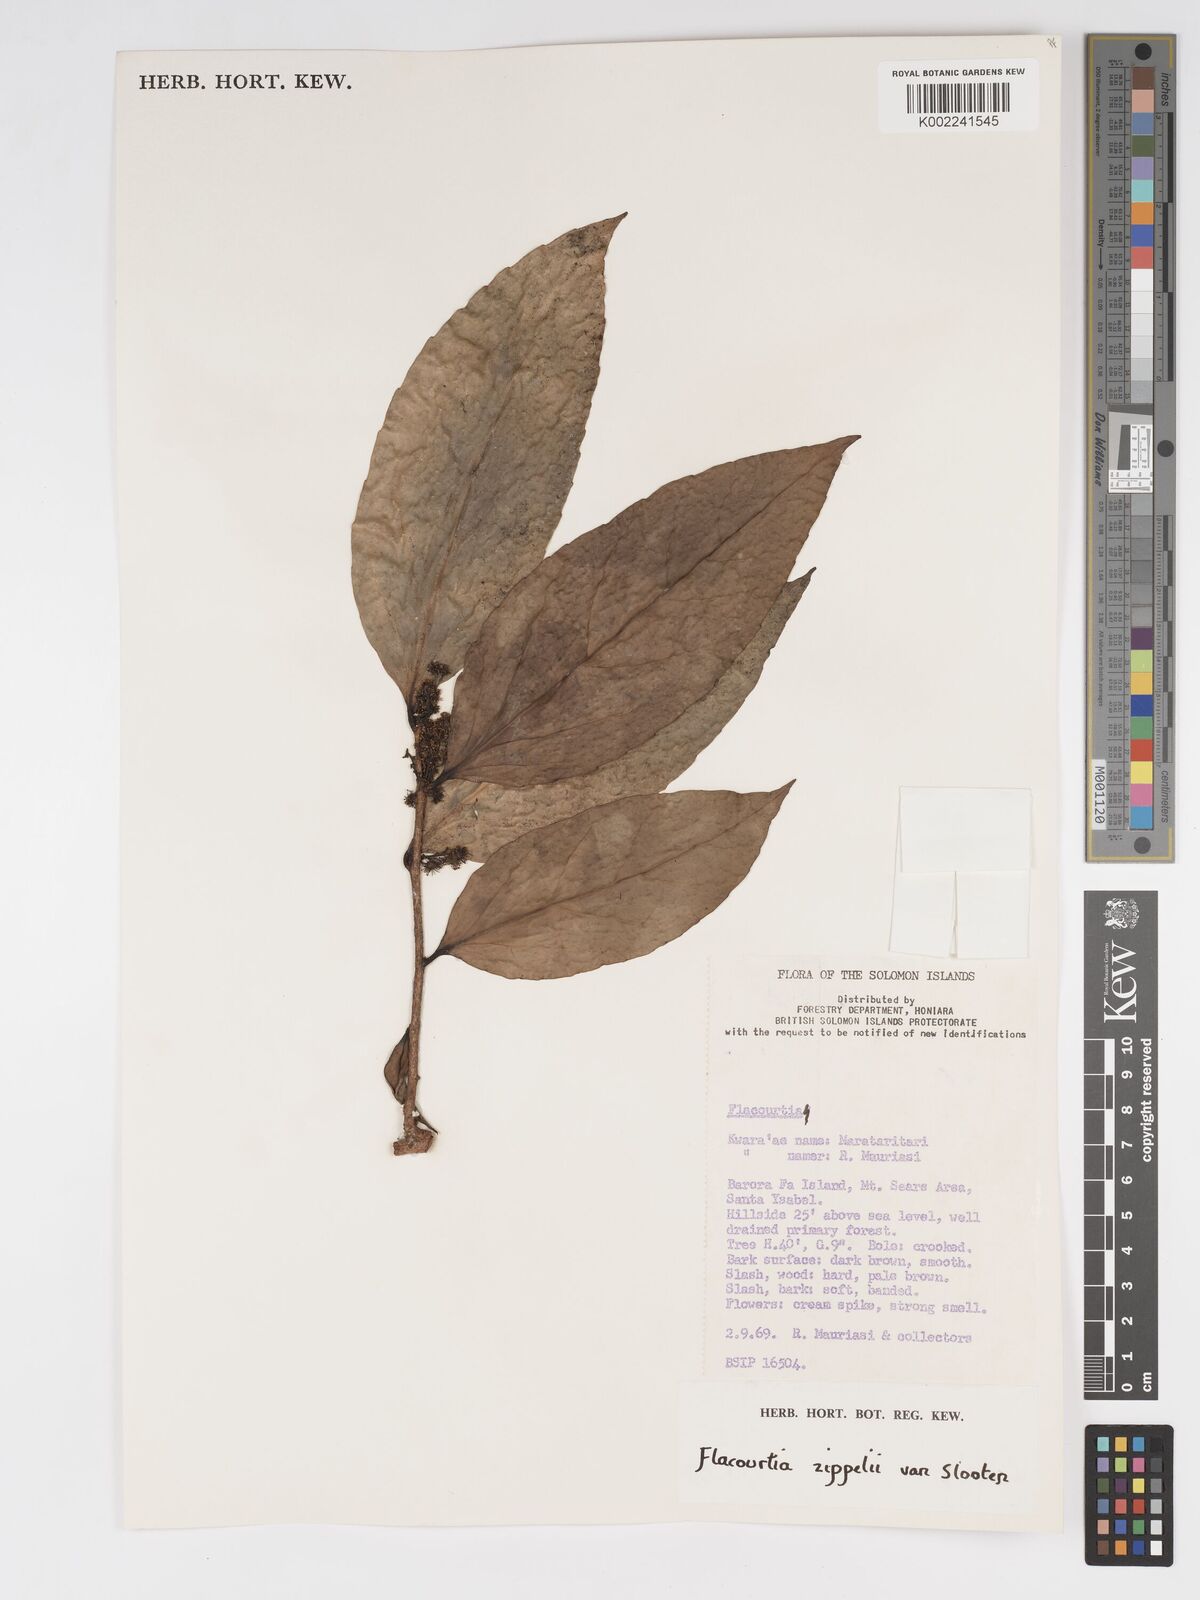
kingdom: Plantae
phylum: Tracheophyta
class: Magnoliopsida
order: Malpighiales
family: Salicaceae
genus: Flacourtia
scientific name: Flacourtia zippelii
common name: Zippeli plum
